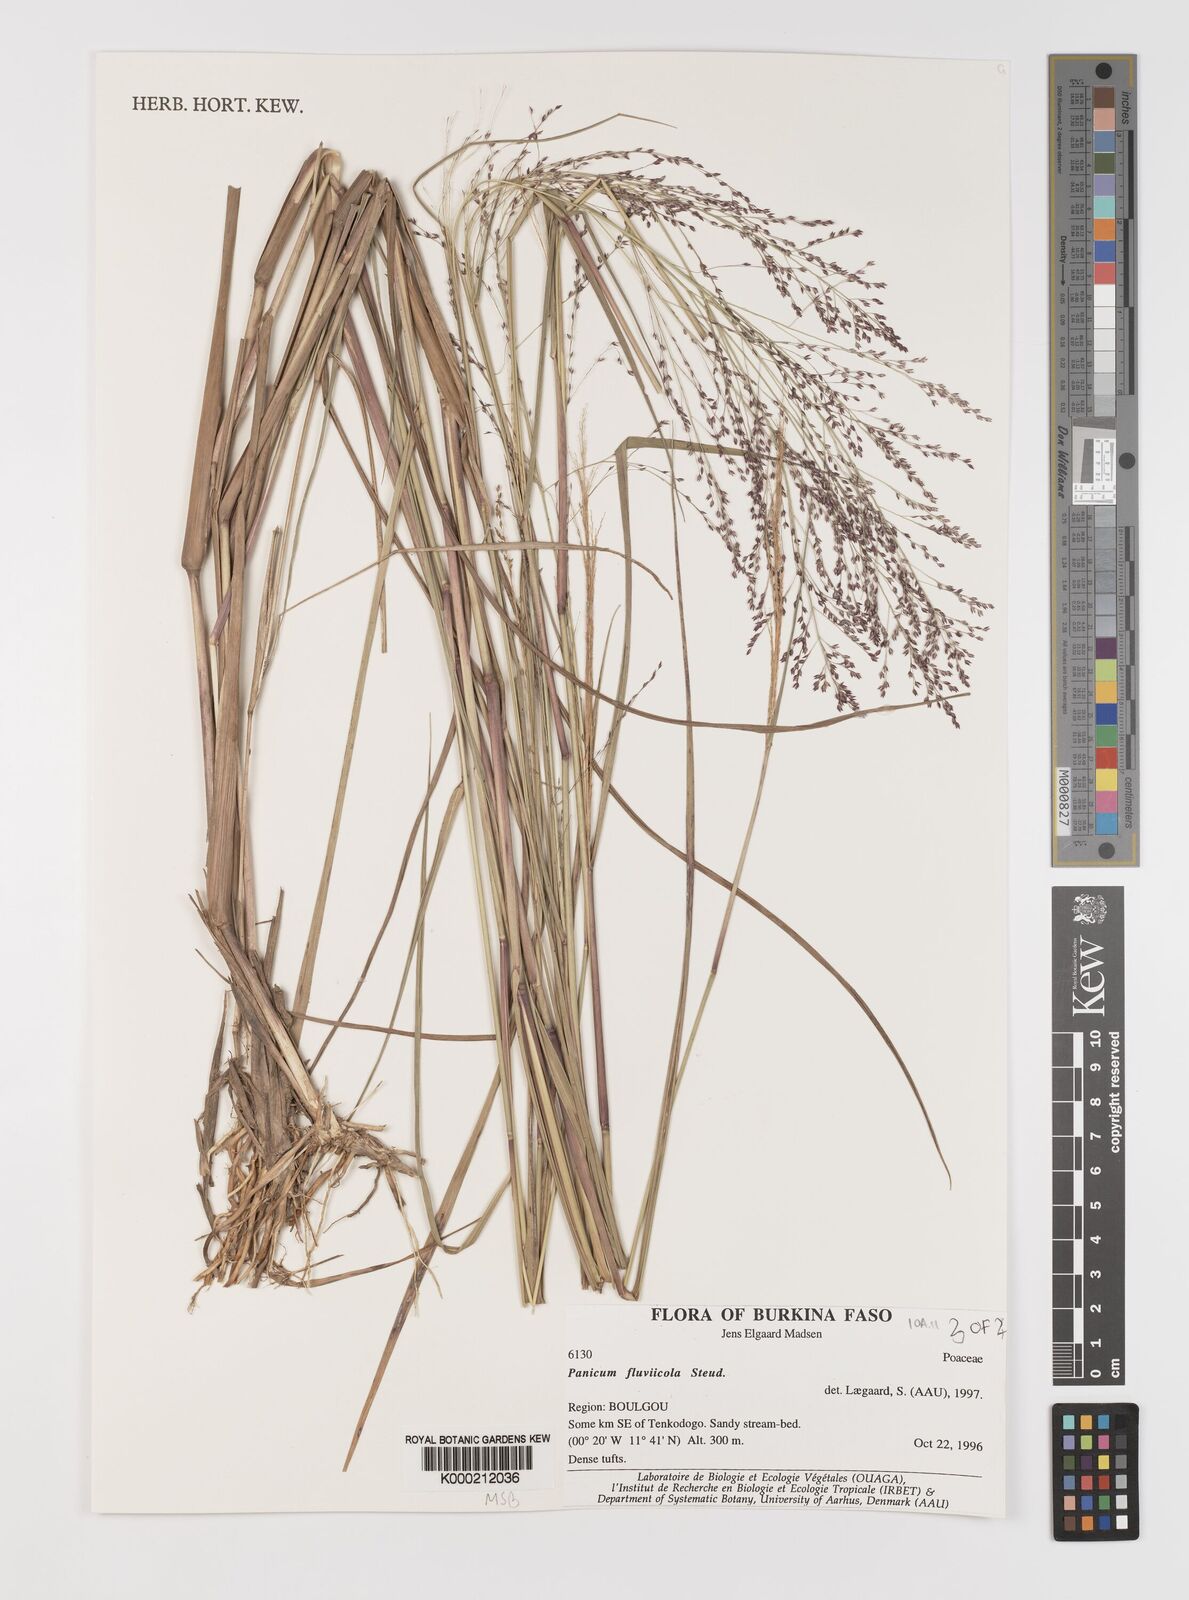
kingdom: Plantae
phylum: Tracheophyta
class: Liliopsida
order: Poales
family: Poaceae
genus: Panicum
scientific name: Panicum fluviicola
